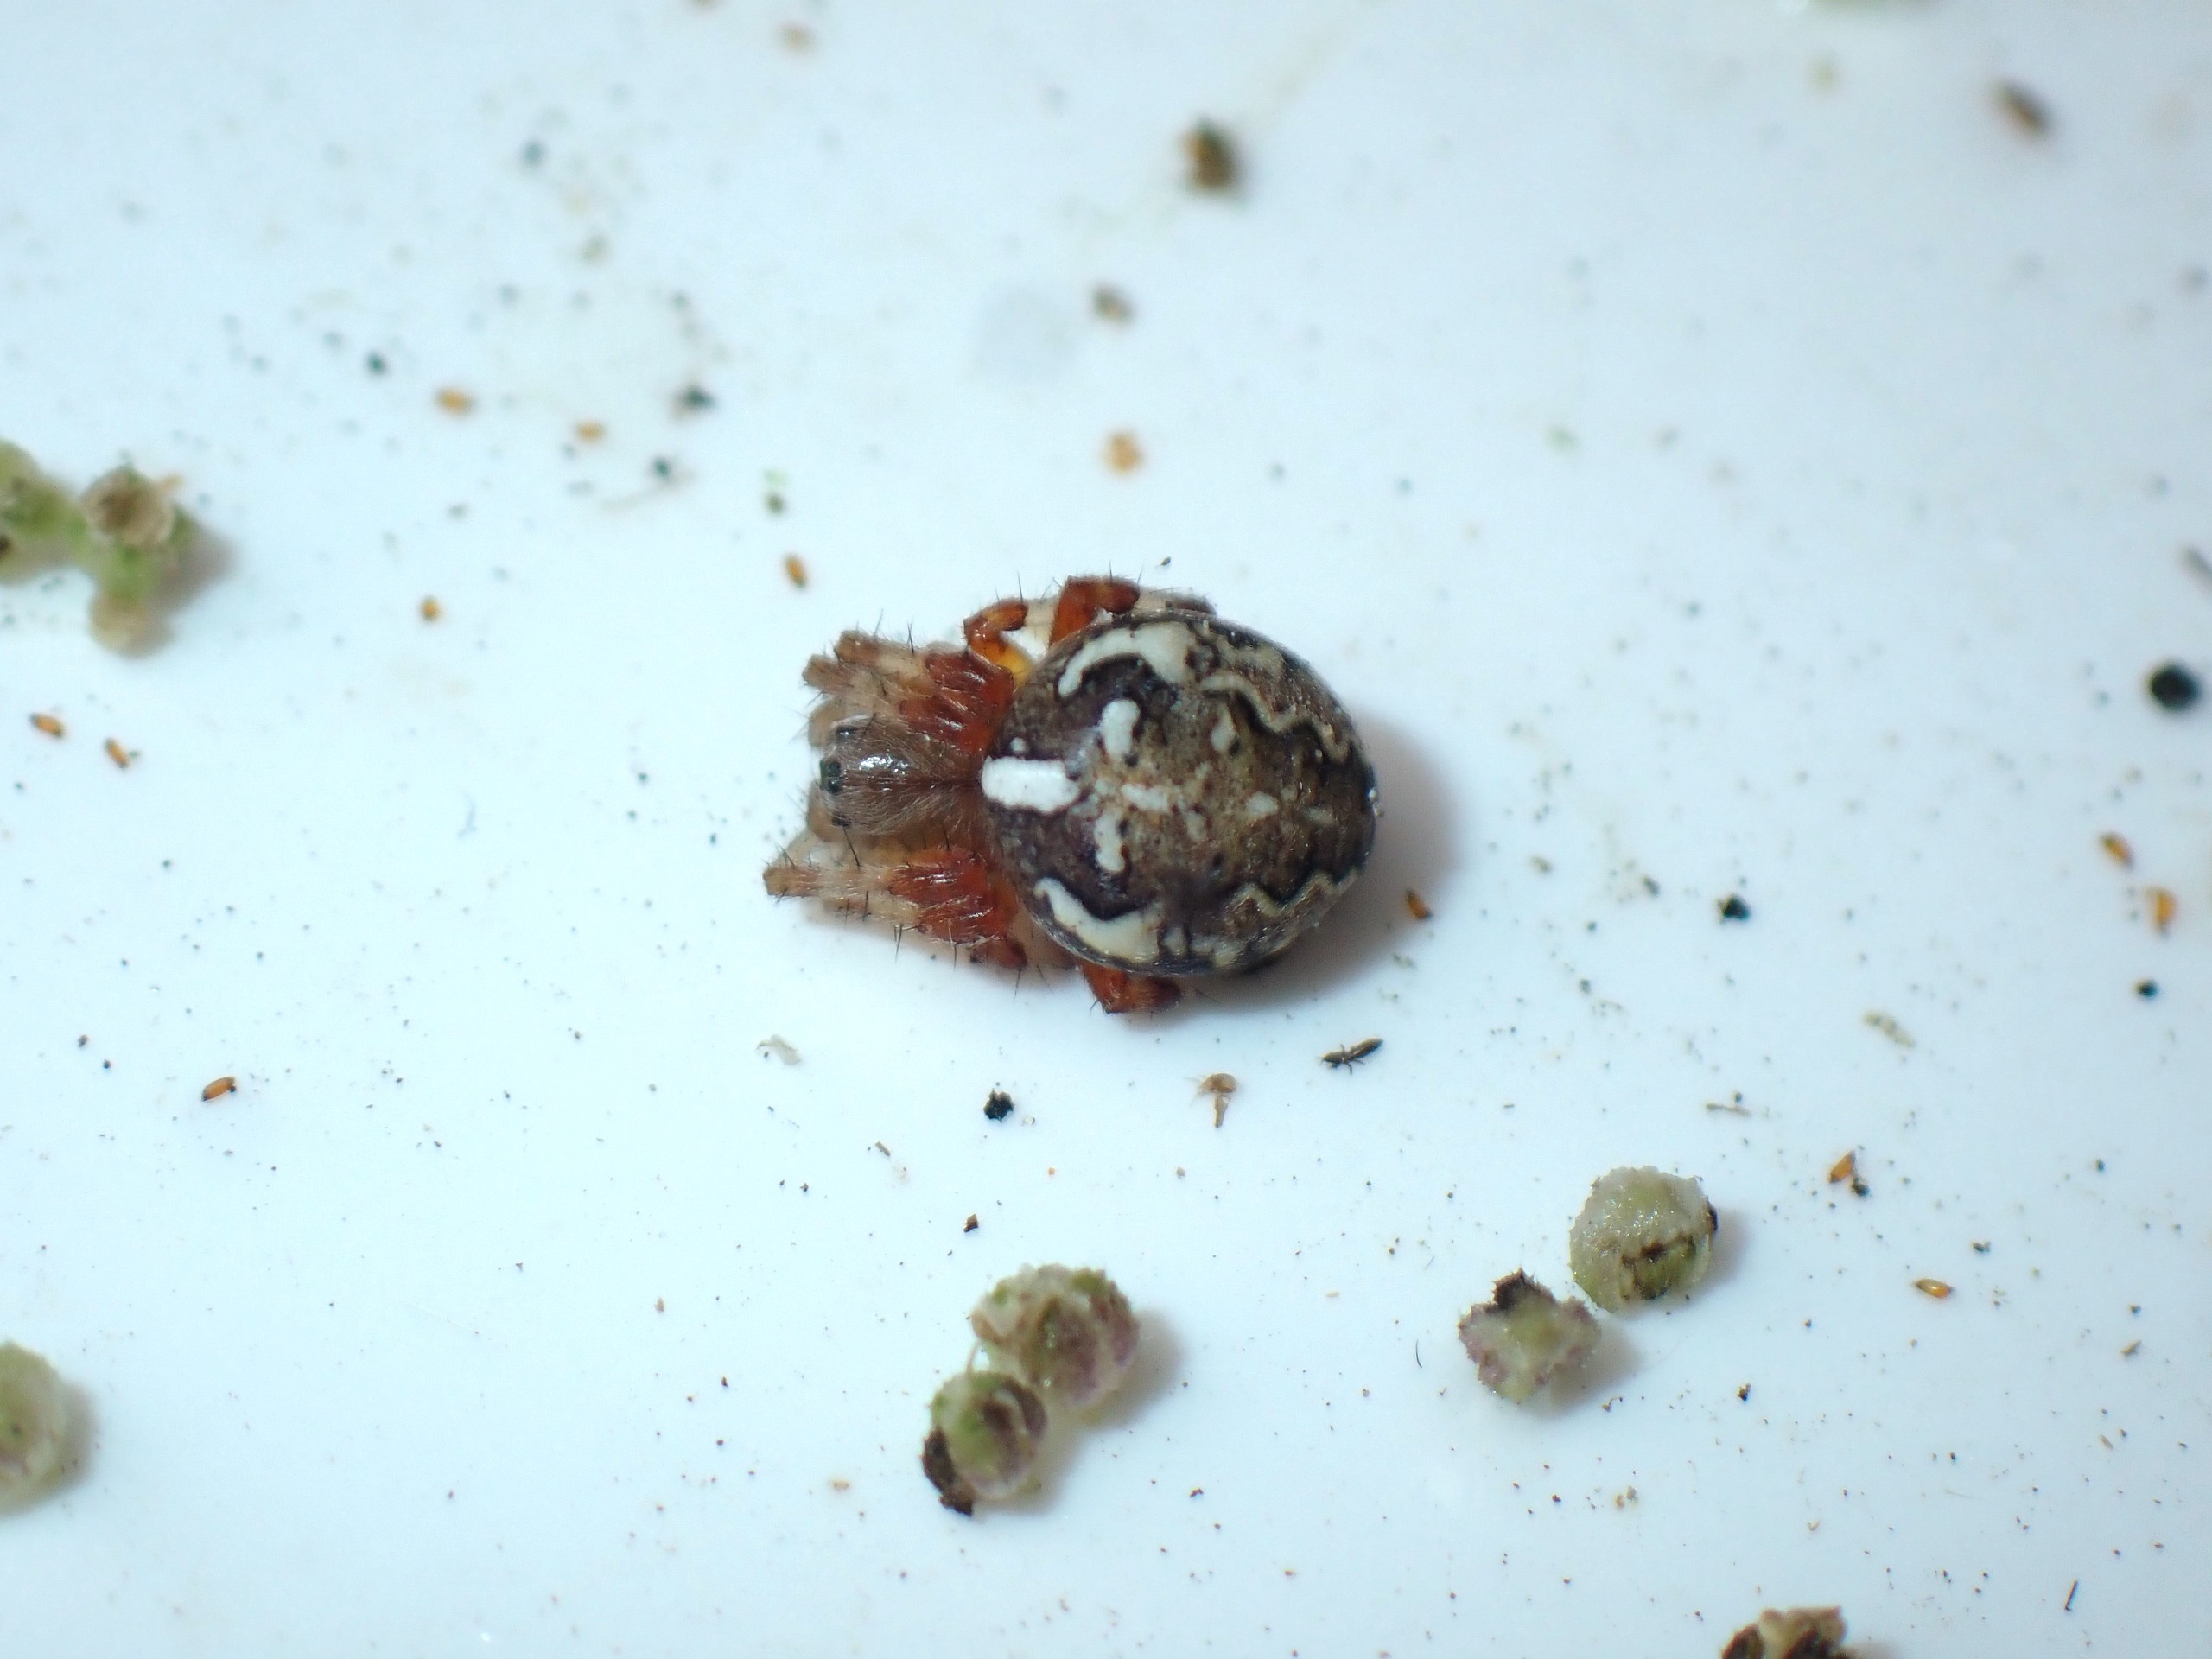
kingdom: Animalia
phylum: Arthropoda
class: Arachnida
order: Araneae
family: Araneidae
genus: Araneus
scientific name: Araneus marmoreus
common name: Marmoreret hjulspinder
